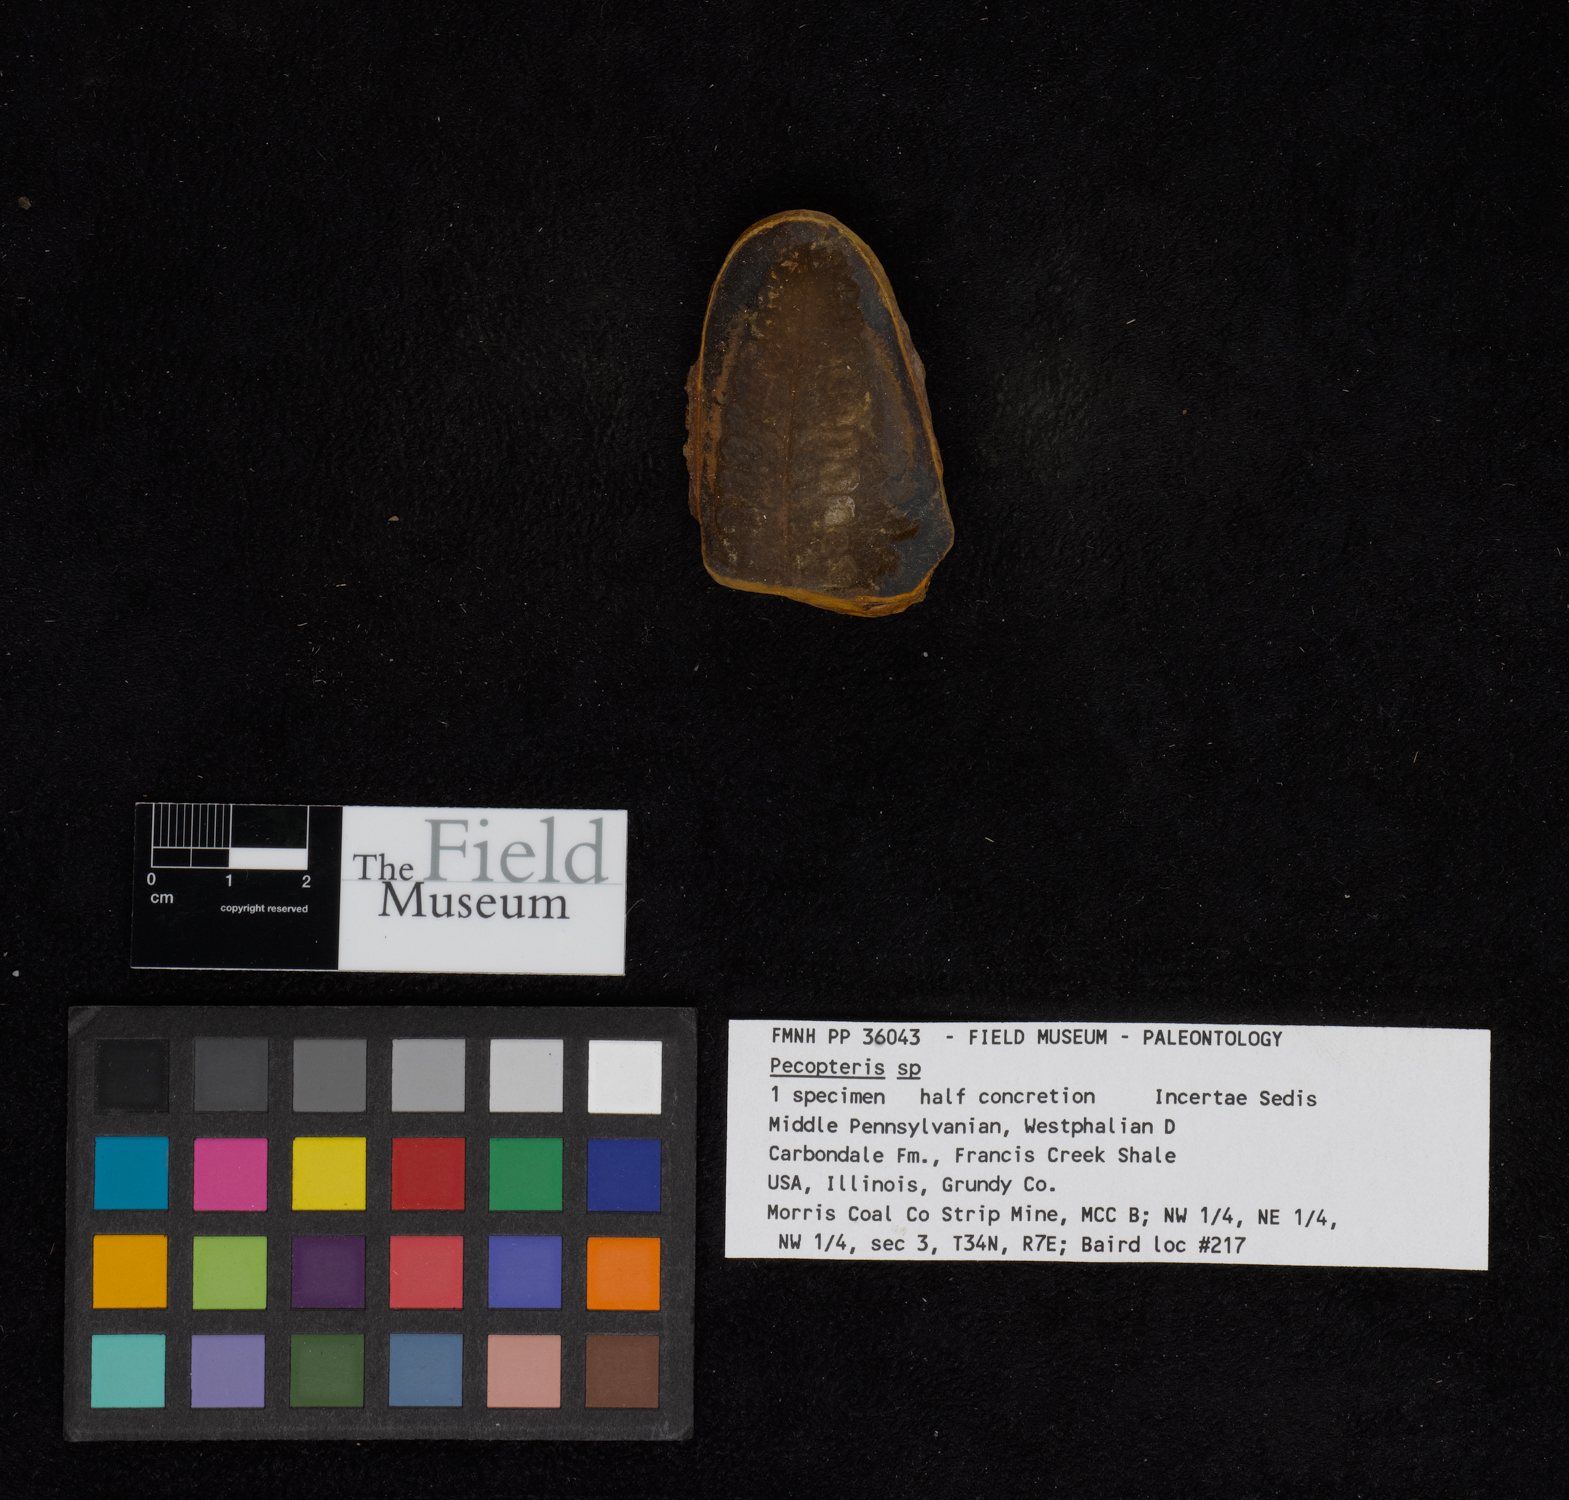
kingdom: Plantae
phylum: Tracheophyta
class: Polypodiopsida
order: Marattiales
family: Asterothecaceae
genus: Pecopteris
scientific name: Pecopteris
